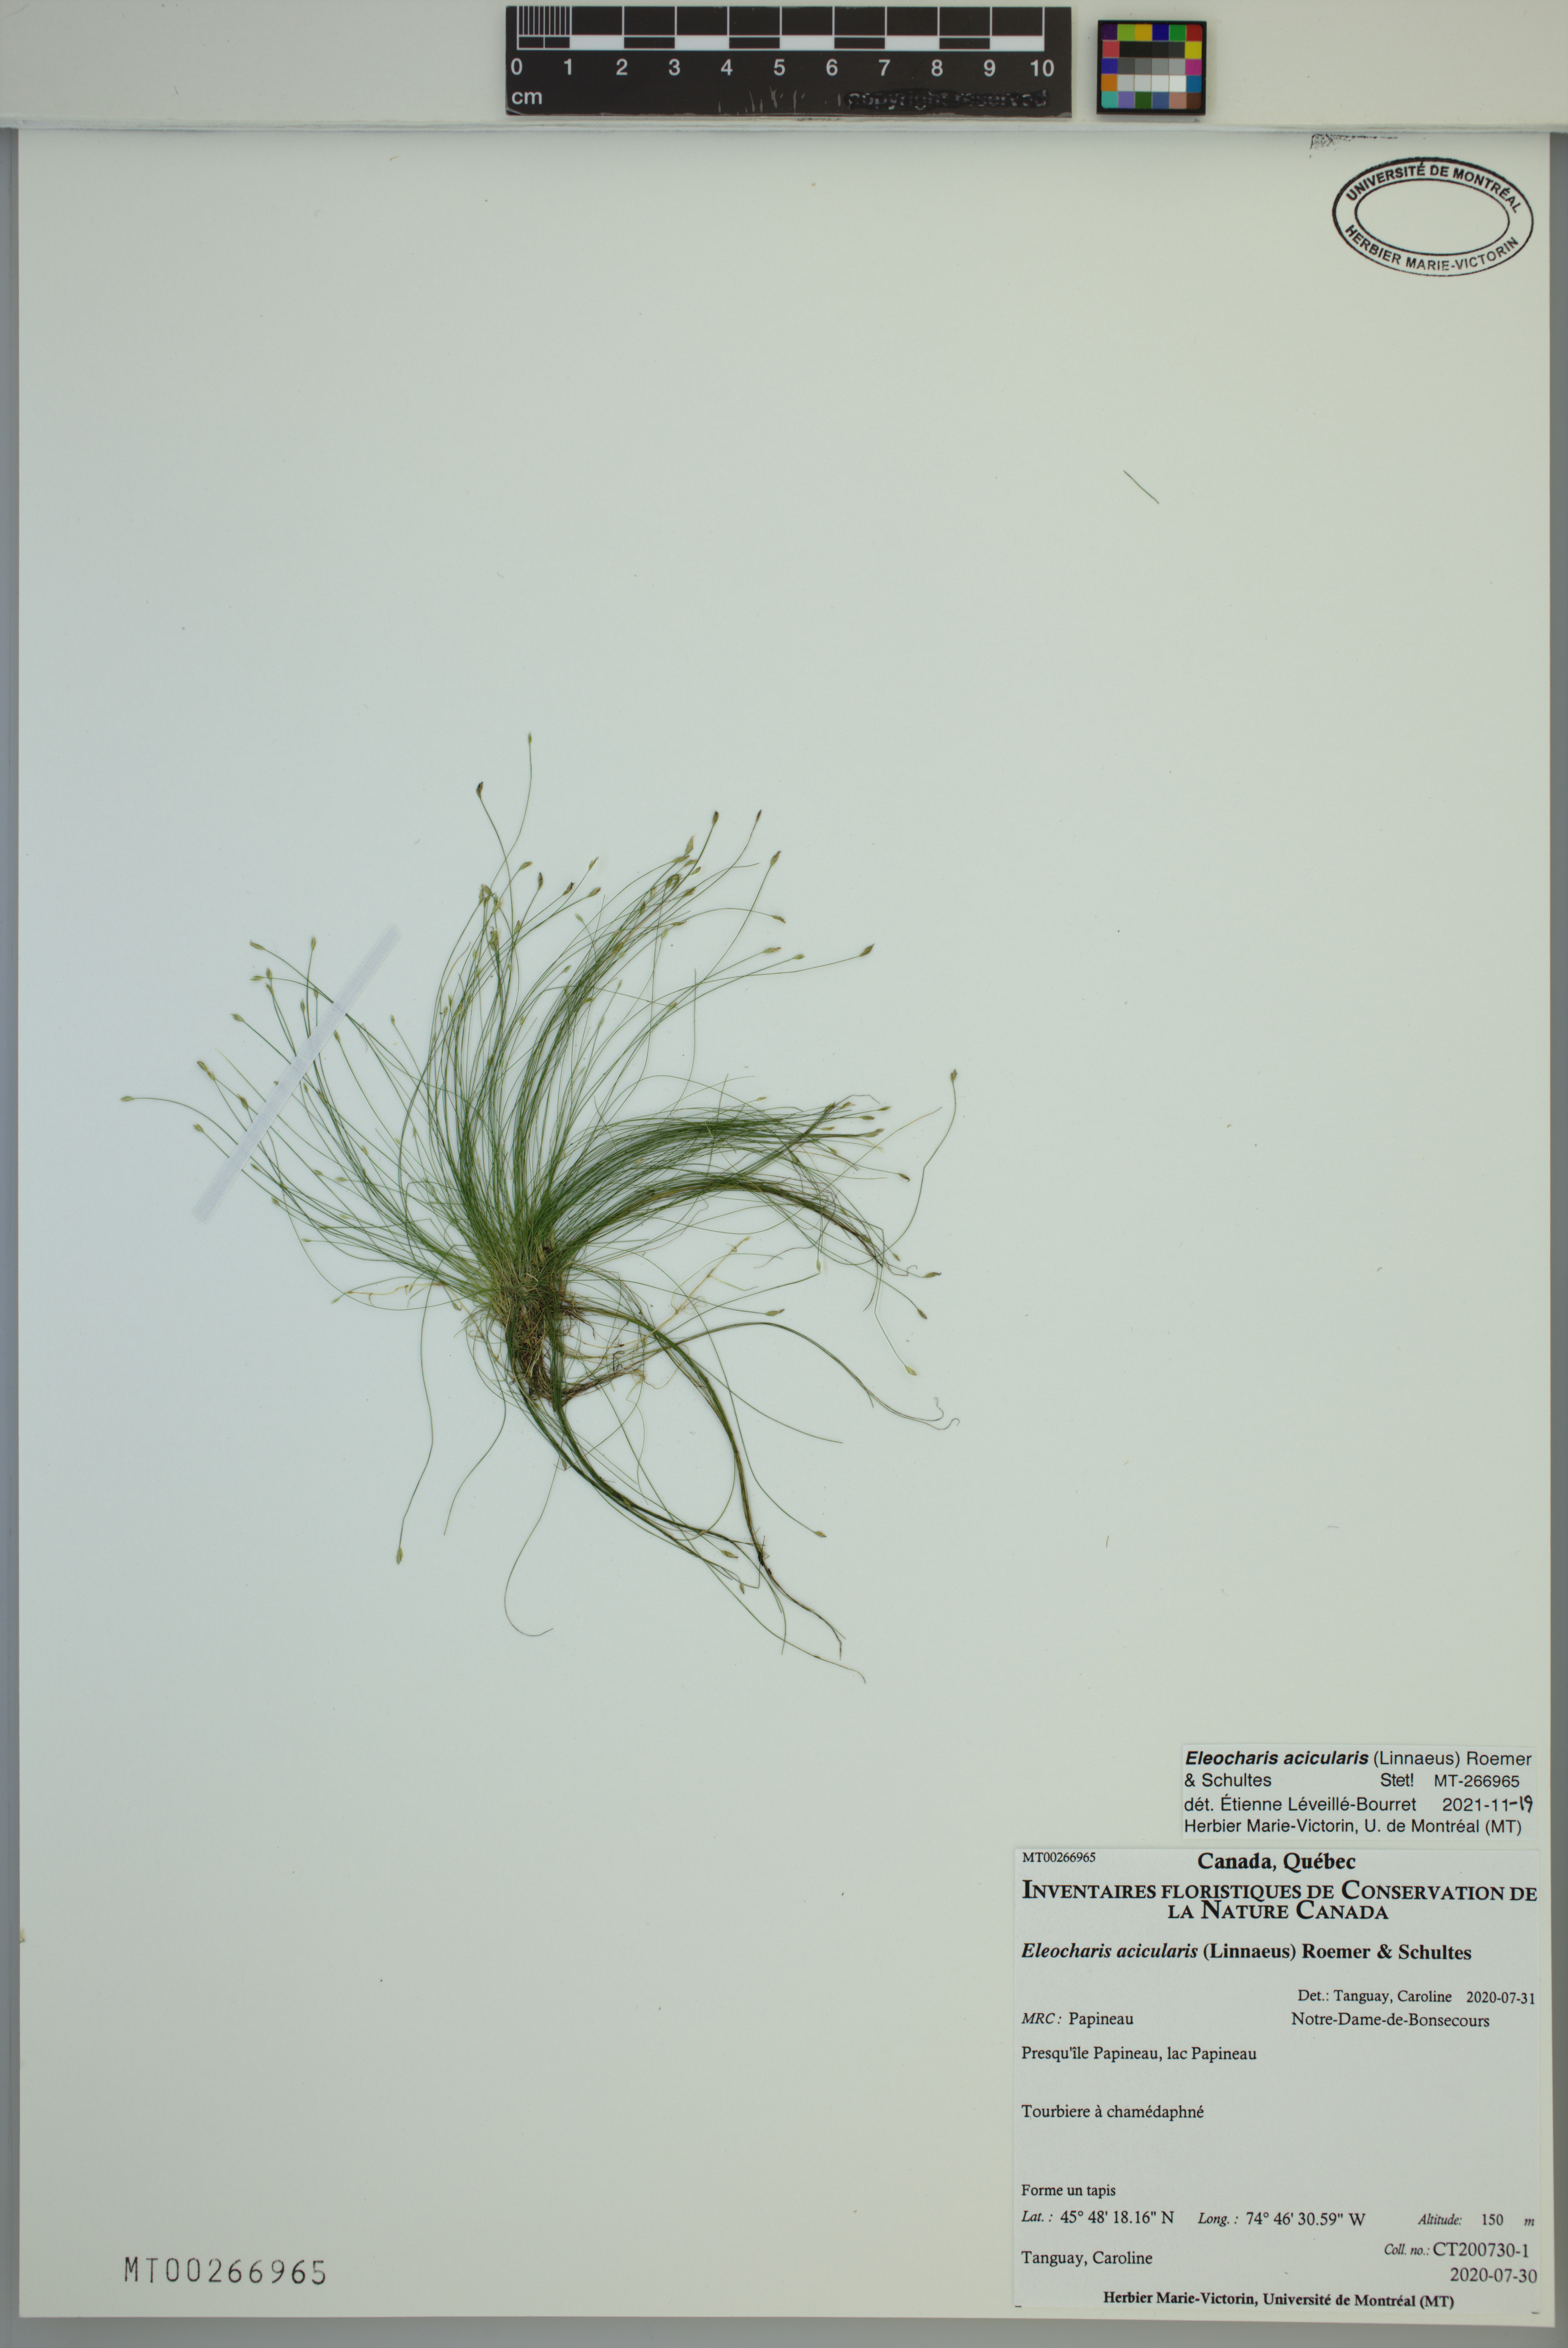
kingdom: Plantae
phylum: Tracheophyta
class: Liliopsida
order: Poales
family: Cyperaceae
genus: Eleocharis
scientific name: Eleocharis acicularis
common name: Needle spike-rush
